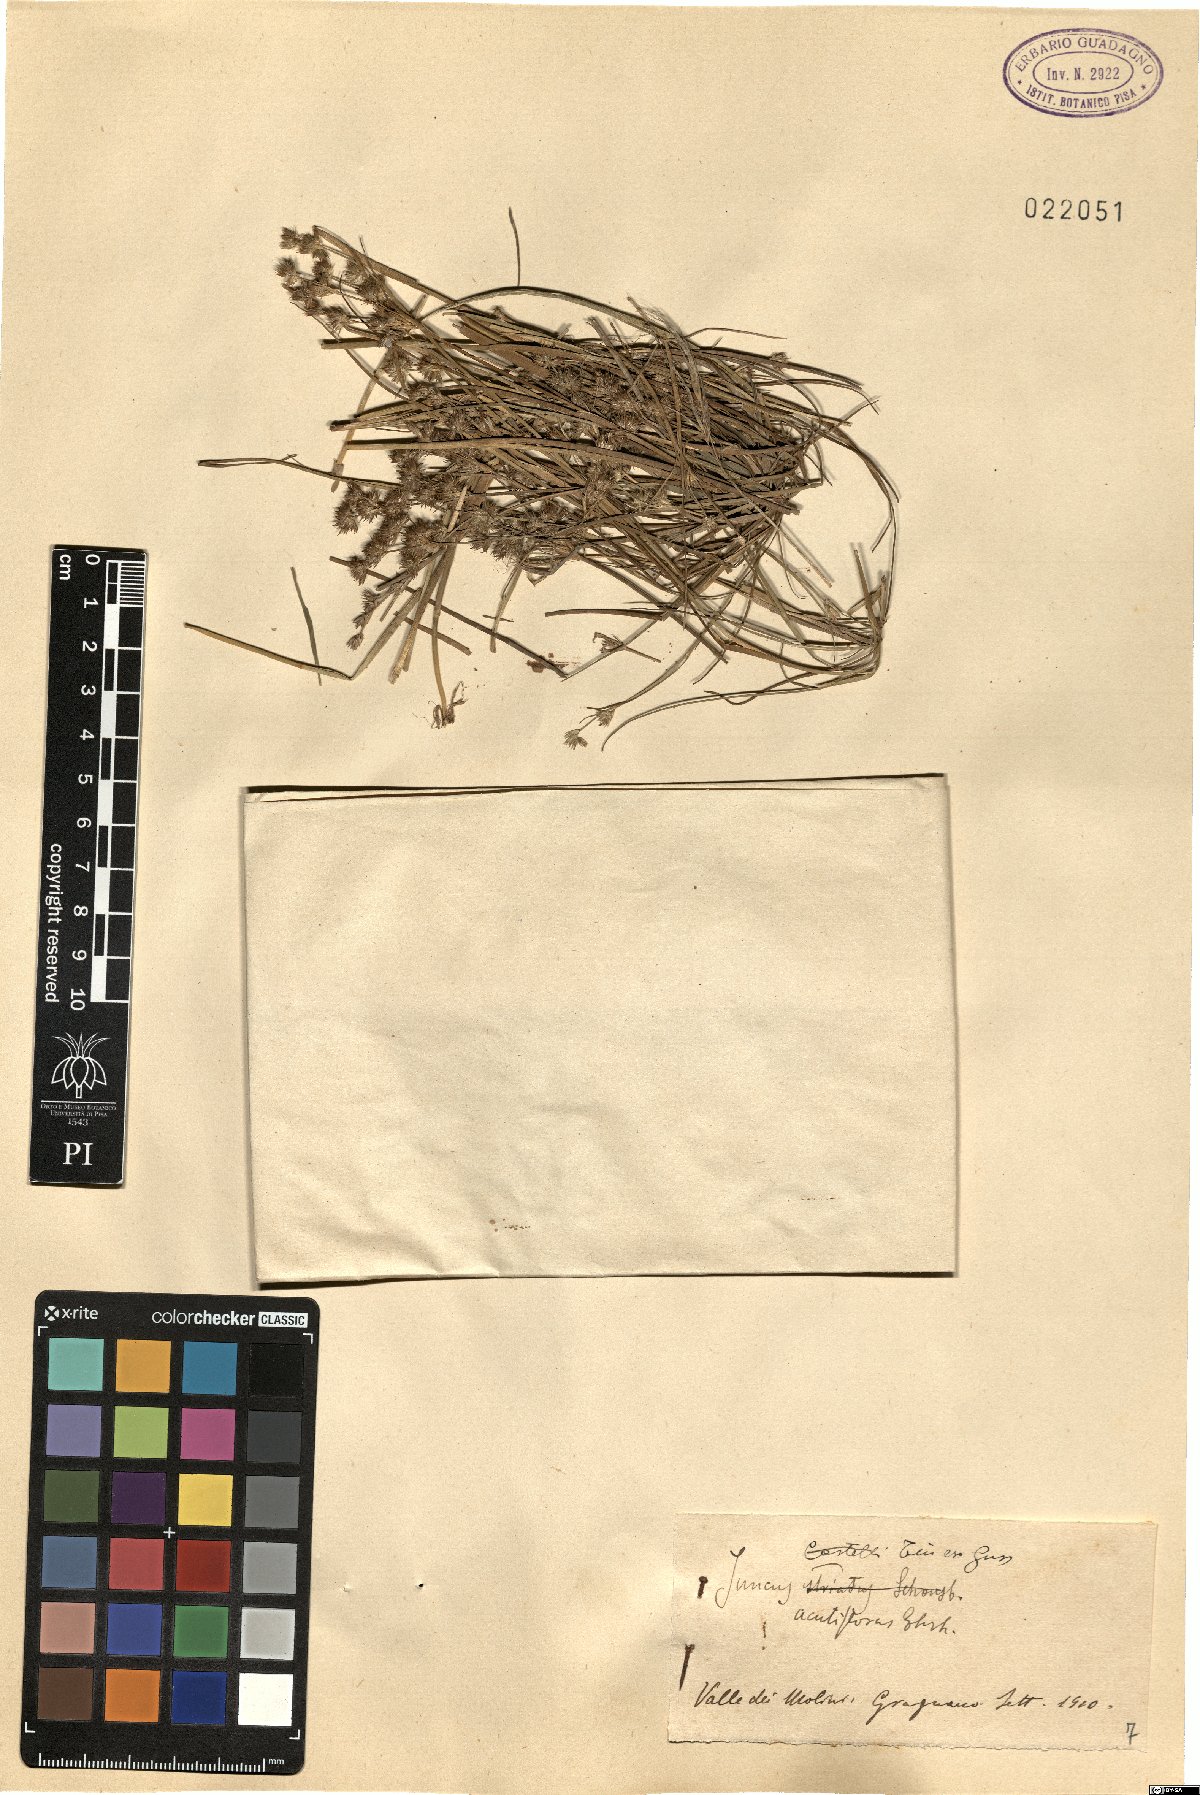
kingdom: Plantae
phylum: Tracheophyta
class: Liliopsida
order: Poales
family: Juncaceae
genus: Juncus
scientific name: Juncus acutiflorus
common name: Sharp-flowered rush
